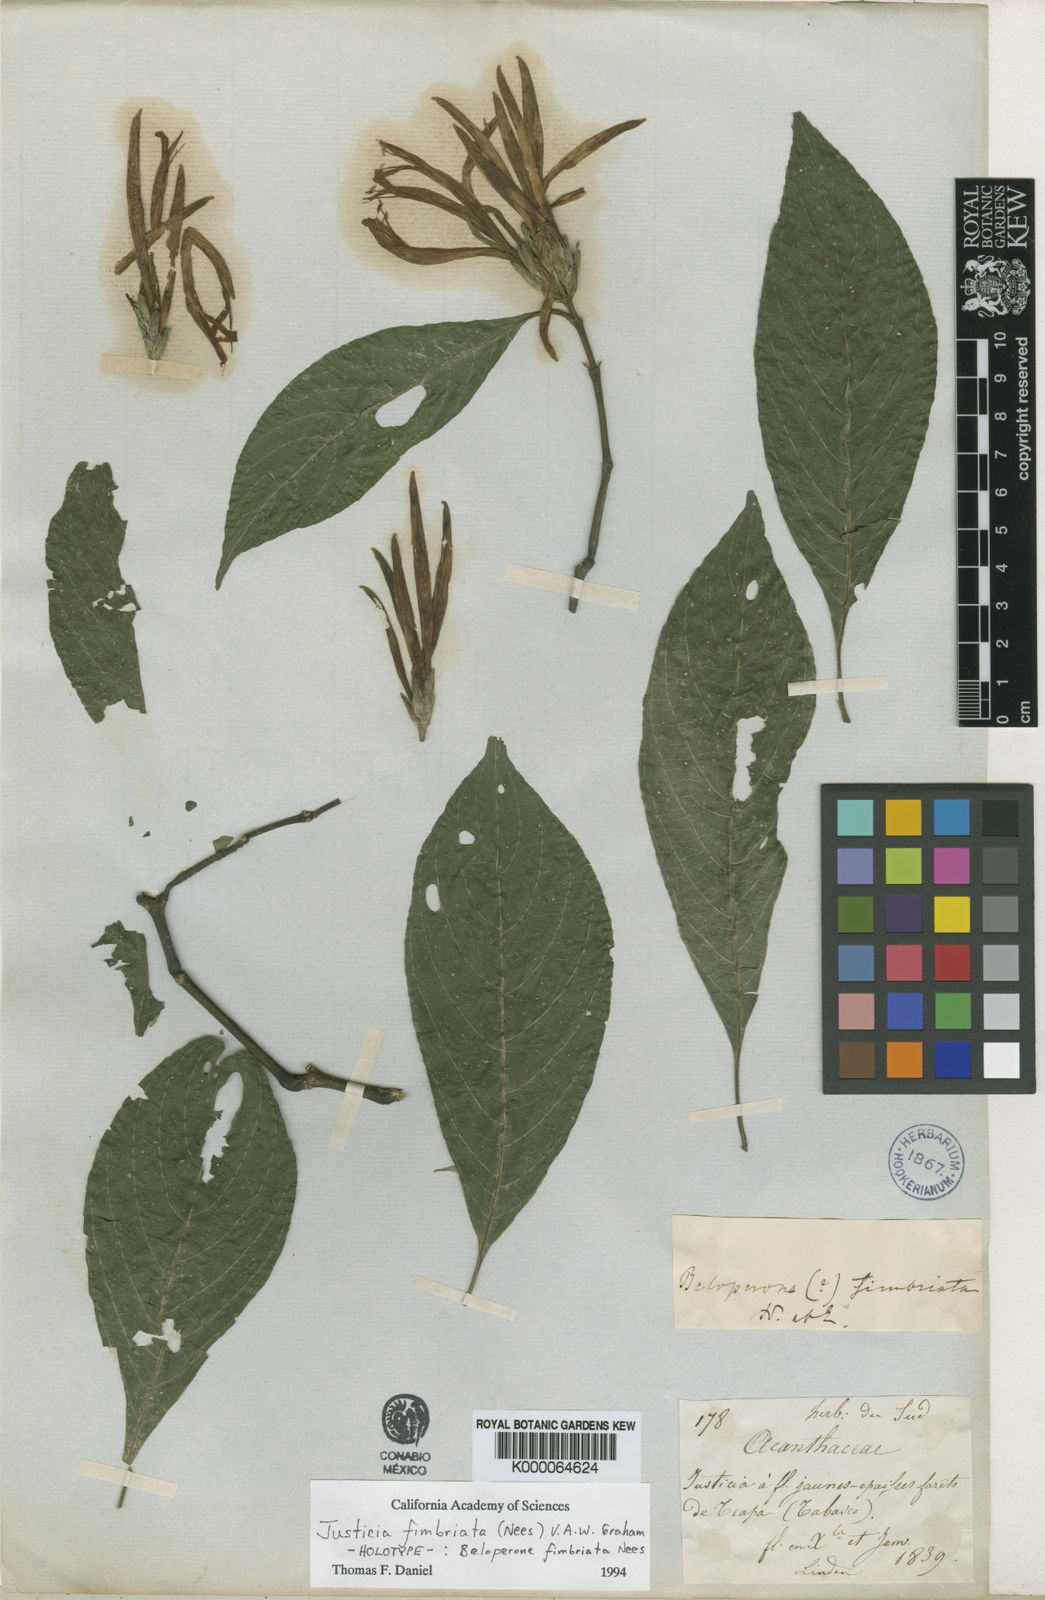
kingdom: Plantae
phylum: Tracheophyta
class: Magnoliopsida
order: Lamiales
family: Acanthaceae
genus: Justicia
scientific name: Justicia fimbriata
